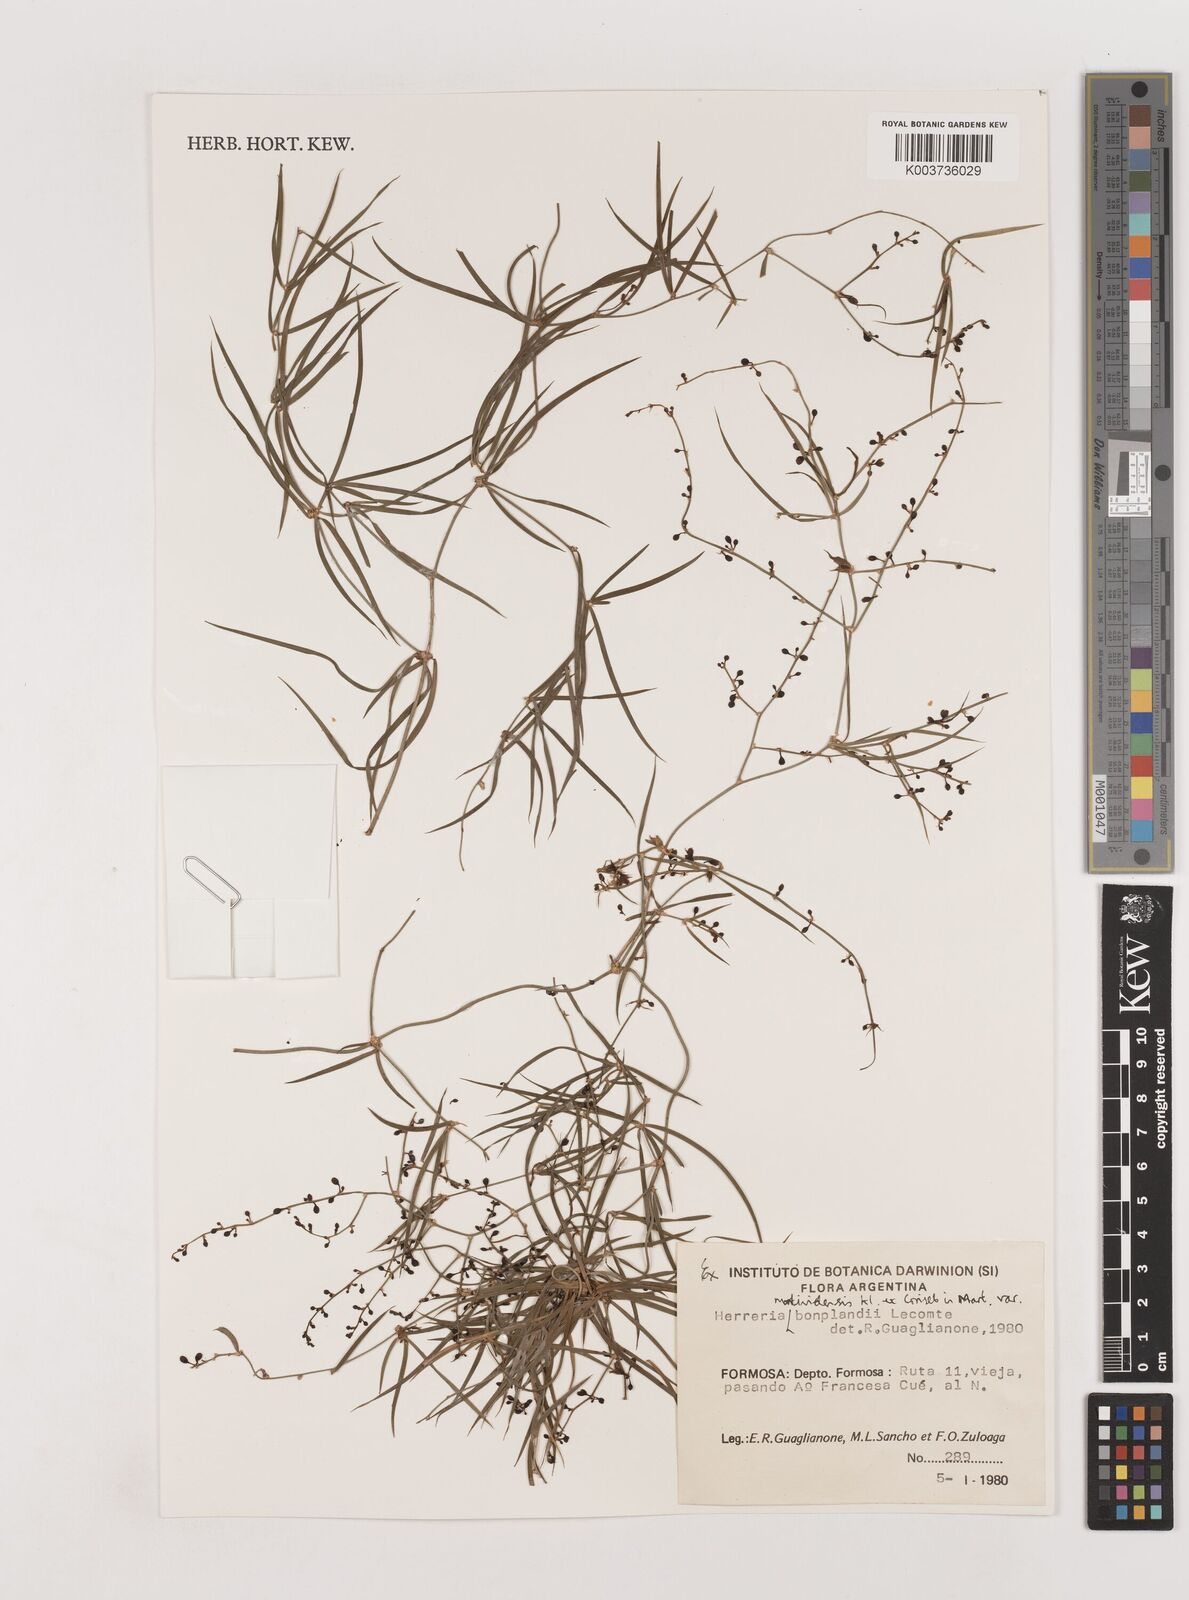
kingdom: Plantae
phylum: Tracheophyta
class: Liliopsida
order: Asparagales
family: Asparagaceae
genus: Herreria
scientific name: Herreria bonplandii
